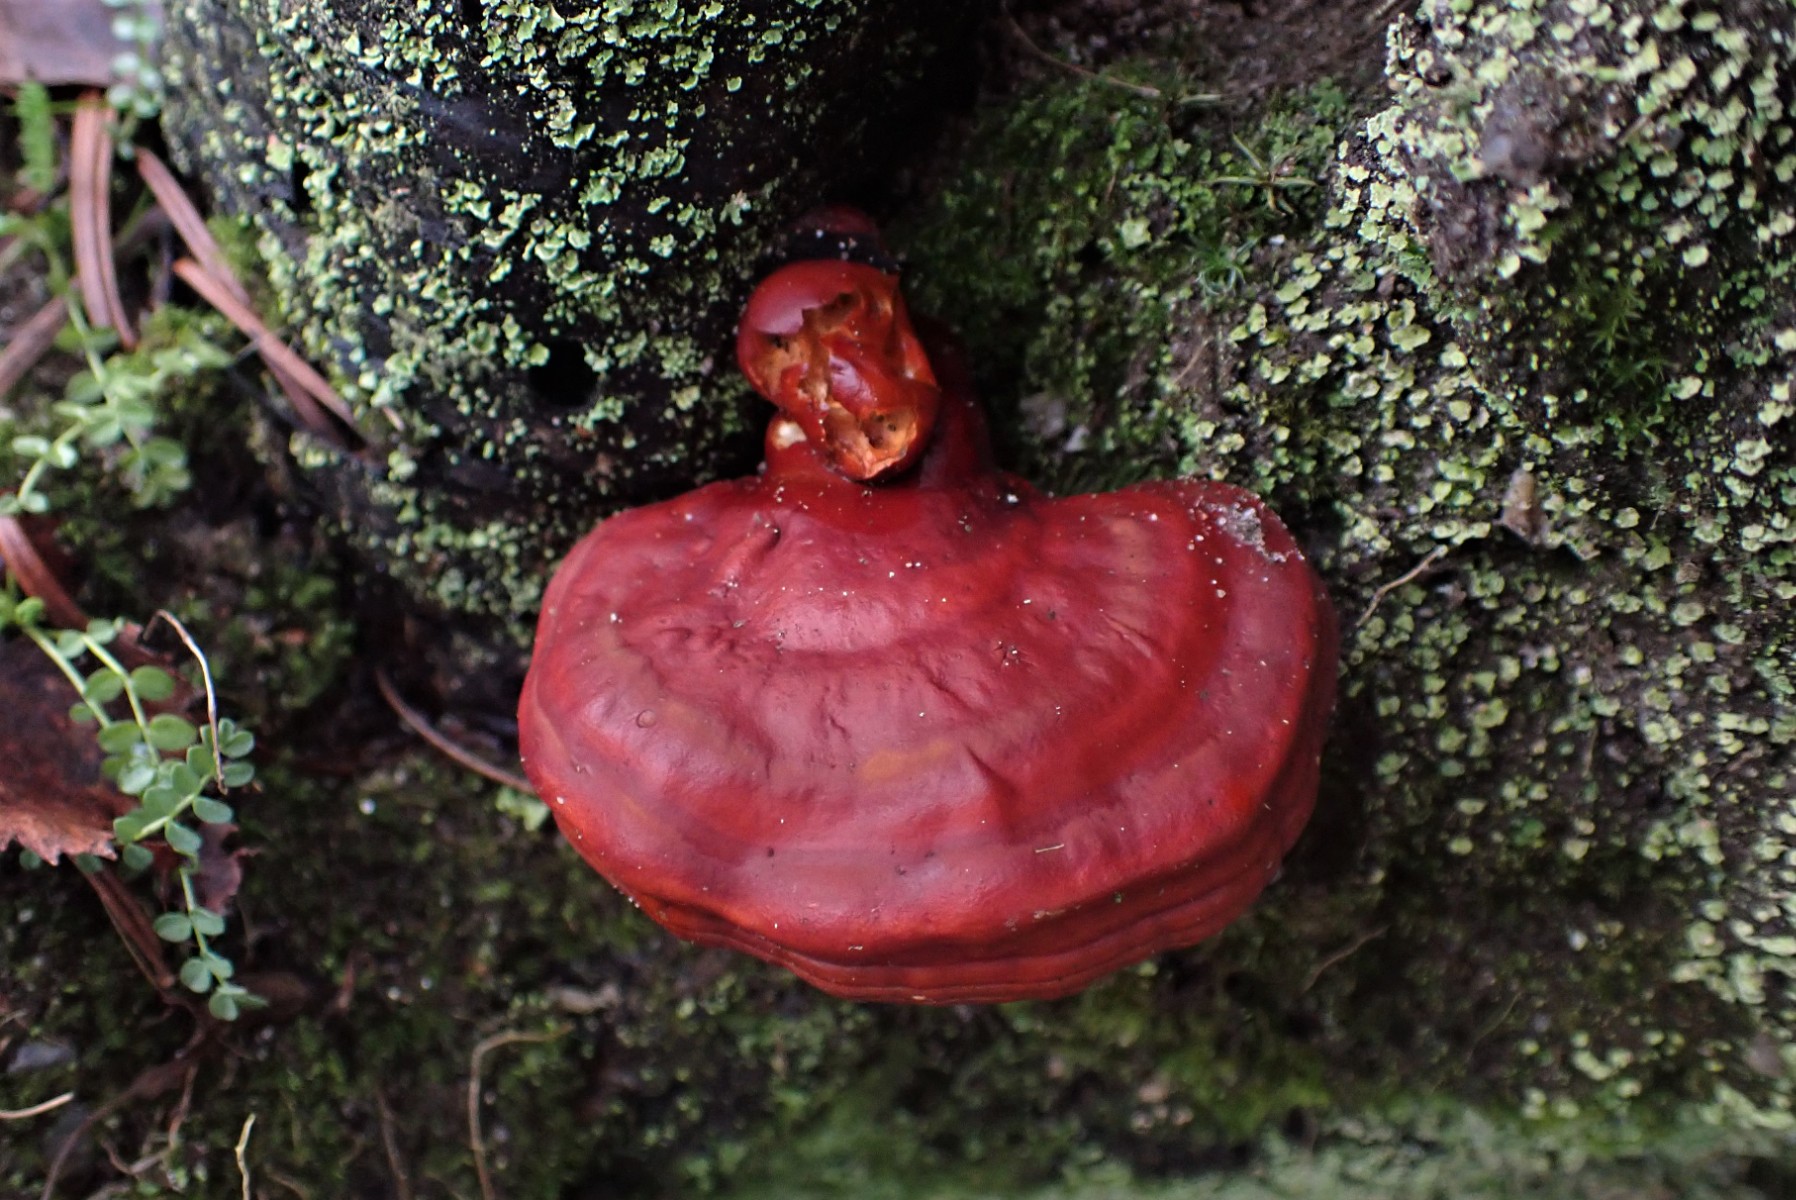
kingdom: Fungi
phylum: Basidiomycota
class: Agaricomycetes
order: Polyporales
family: Polyporaceae
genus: Ganoderma
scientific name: Ganoderma lucidum
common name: skinnende lakporesvamp
